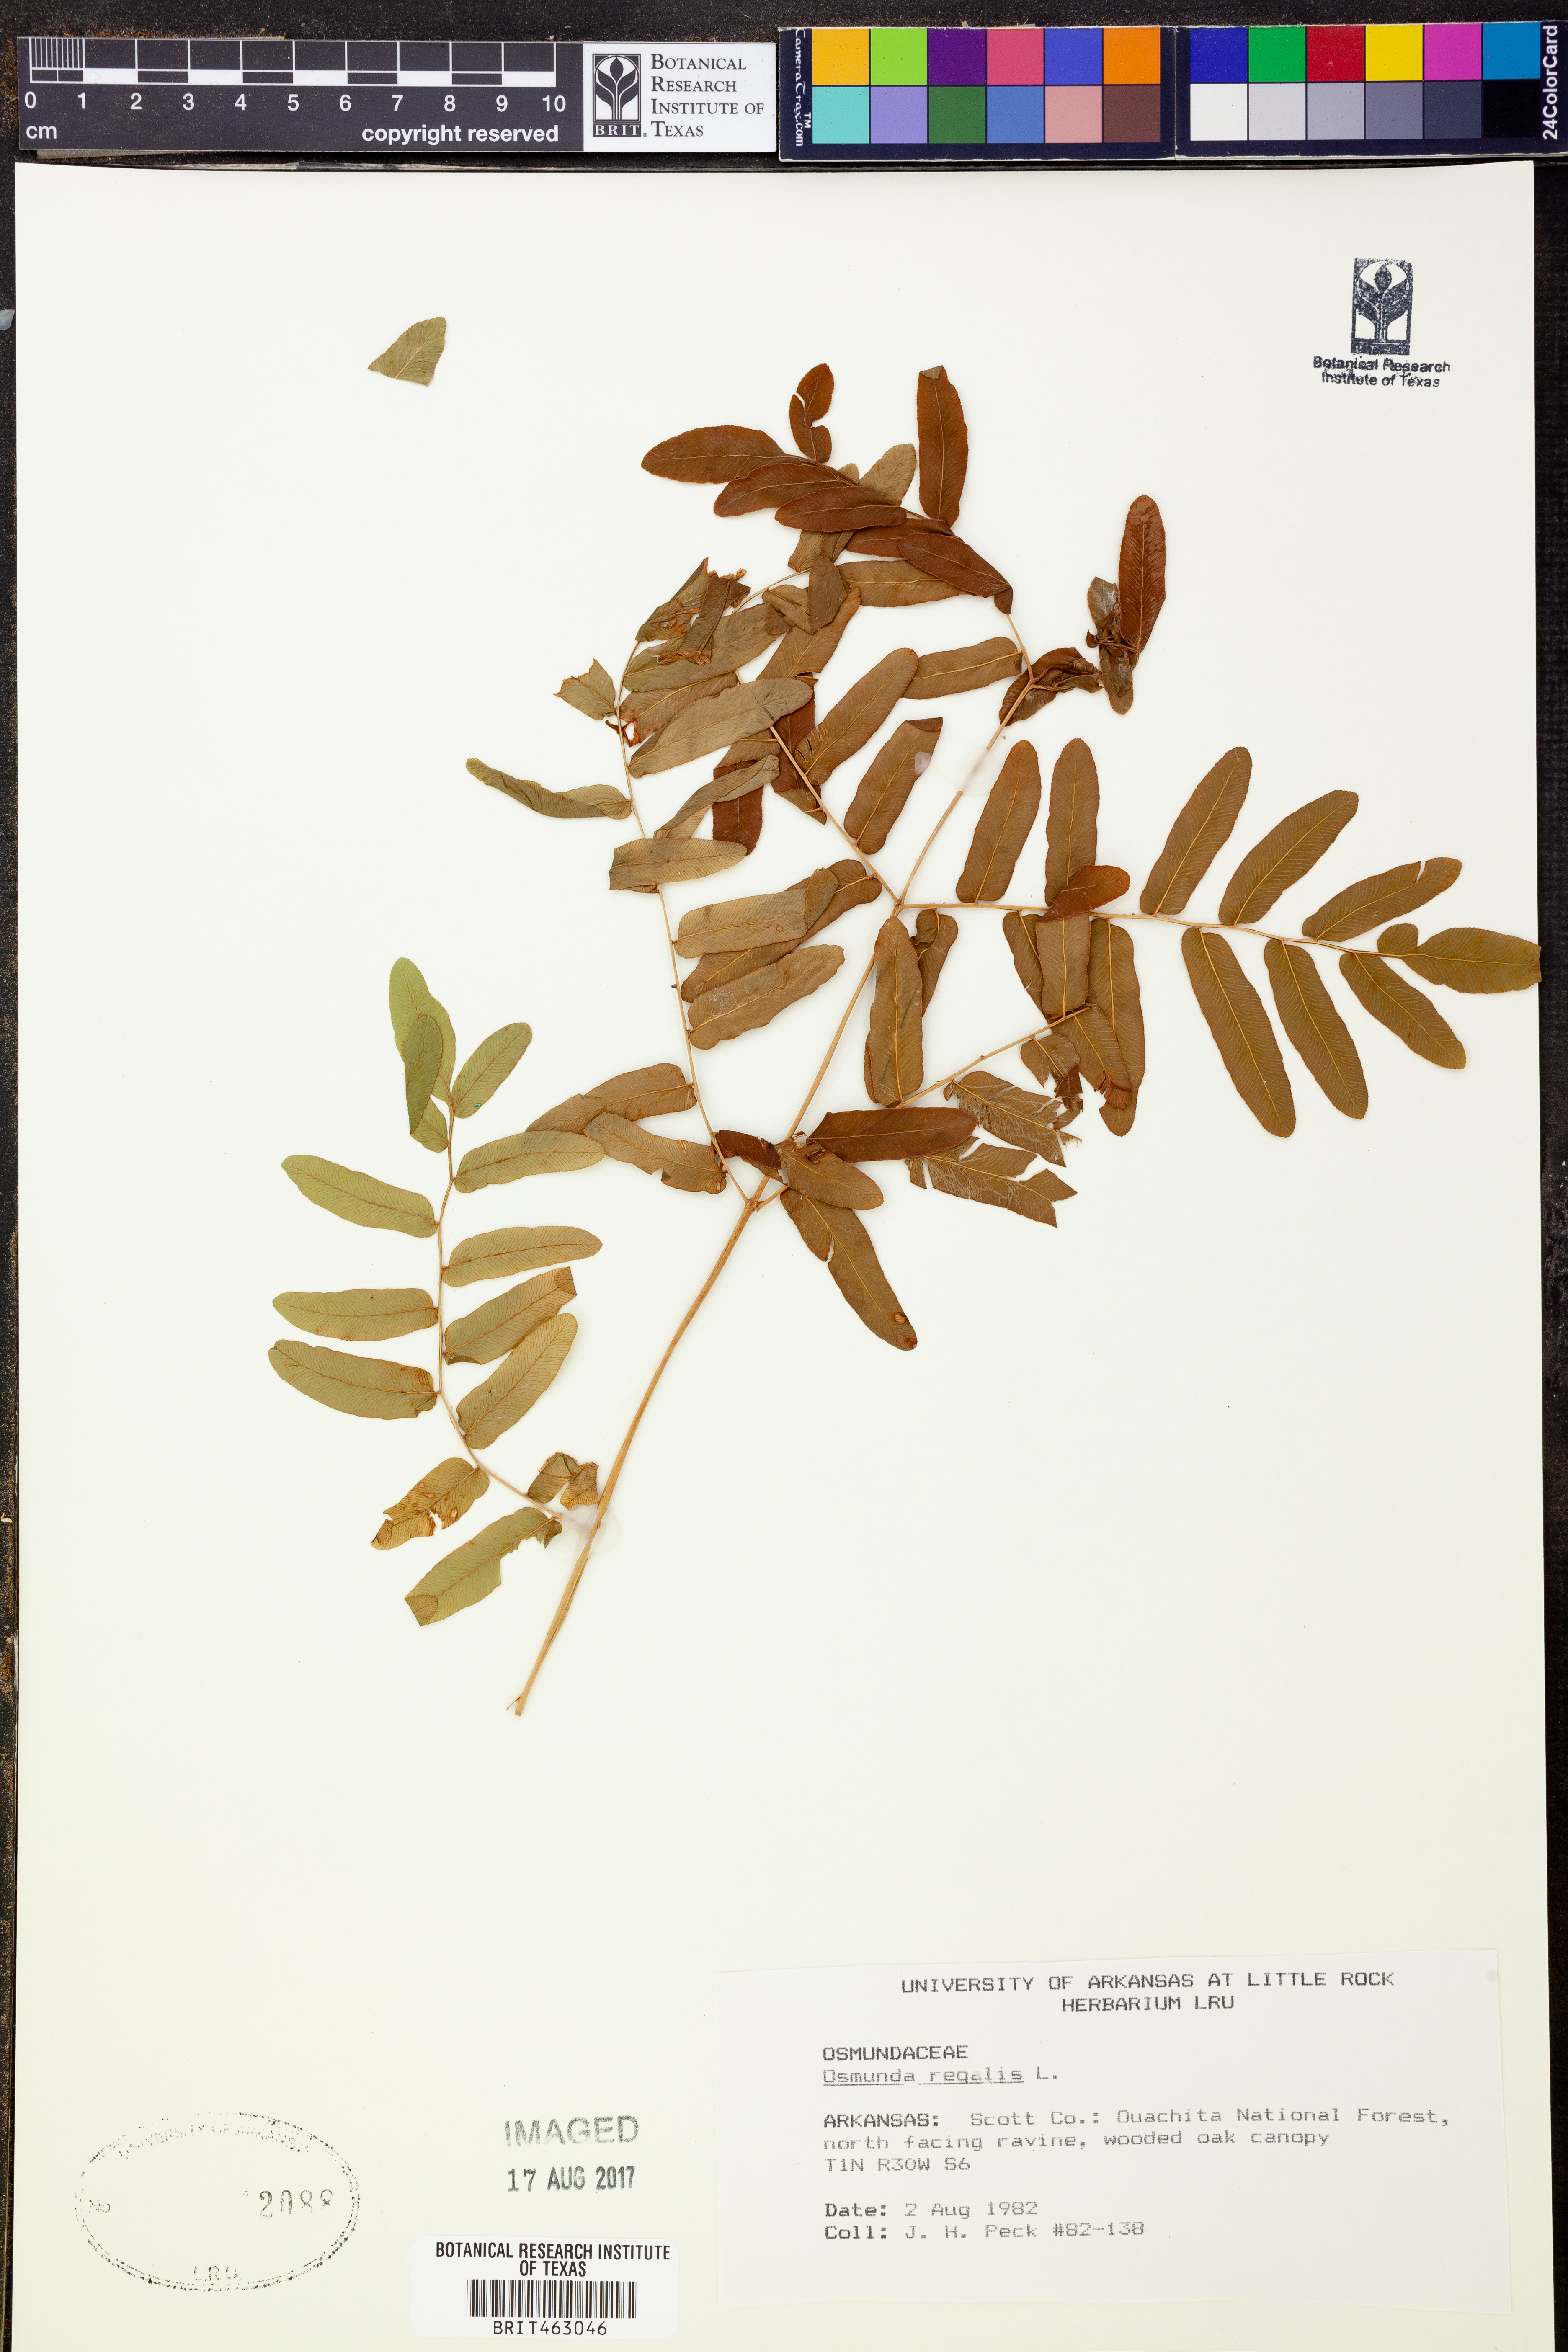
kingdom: Plantae
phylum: Tracheophyta
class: Polypodiopsida
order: Osmundales
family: Osmundaceae
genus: Osmunda
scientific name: Osmunda regalis
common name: Royal fern
